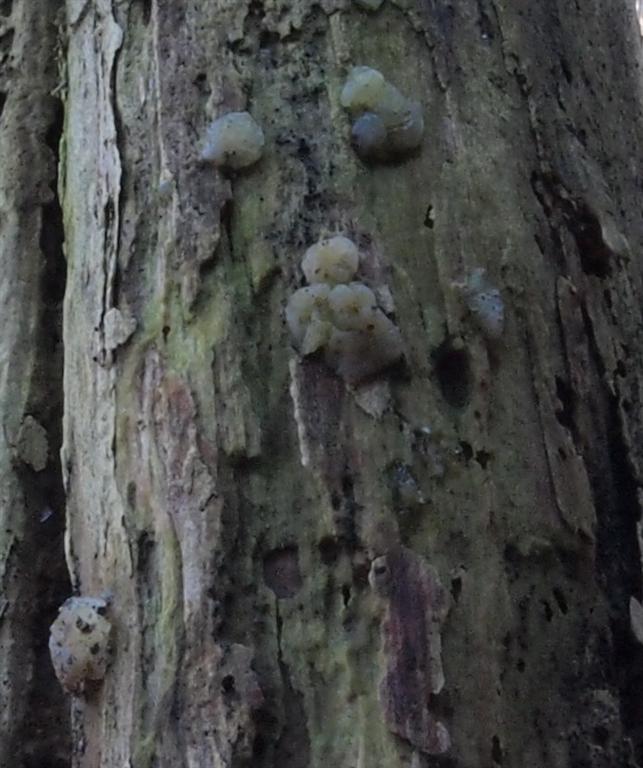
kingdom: Fungi
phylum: Basidiomycota
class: Agaricomycetes
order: Auriculariales
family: Hyaloriaceae
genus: Myxarium
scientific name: Myxarium nucleatum
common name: klar bævretop
